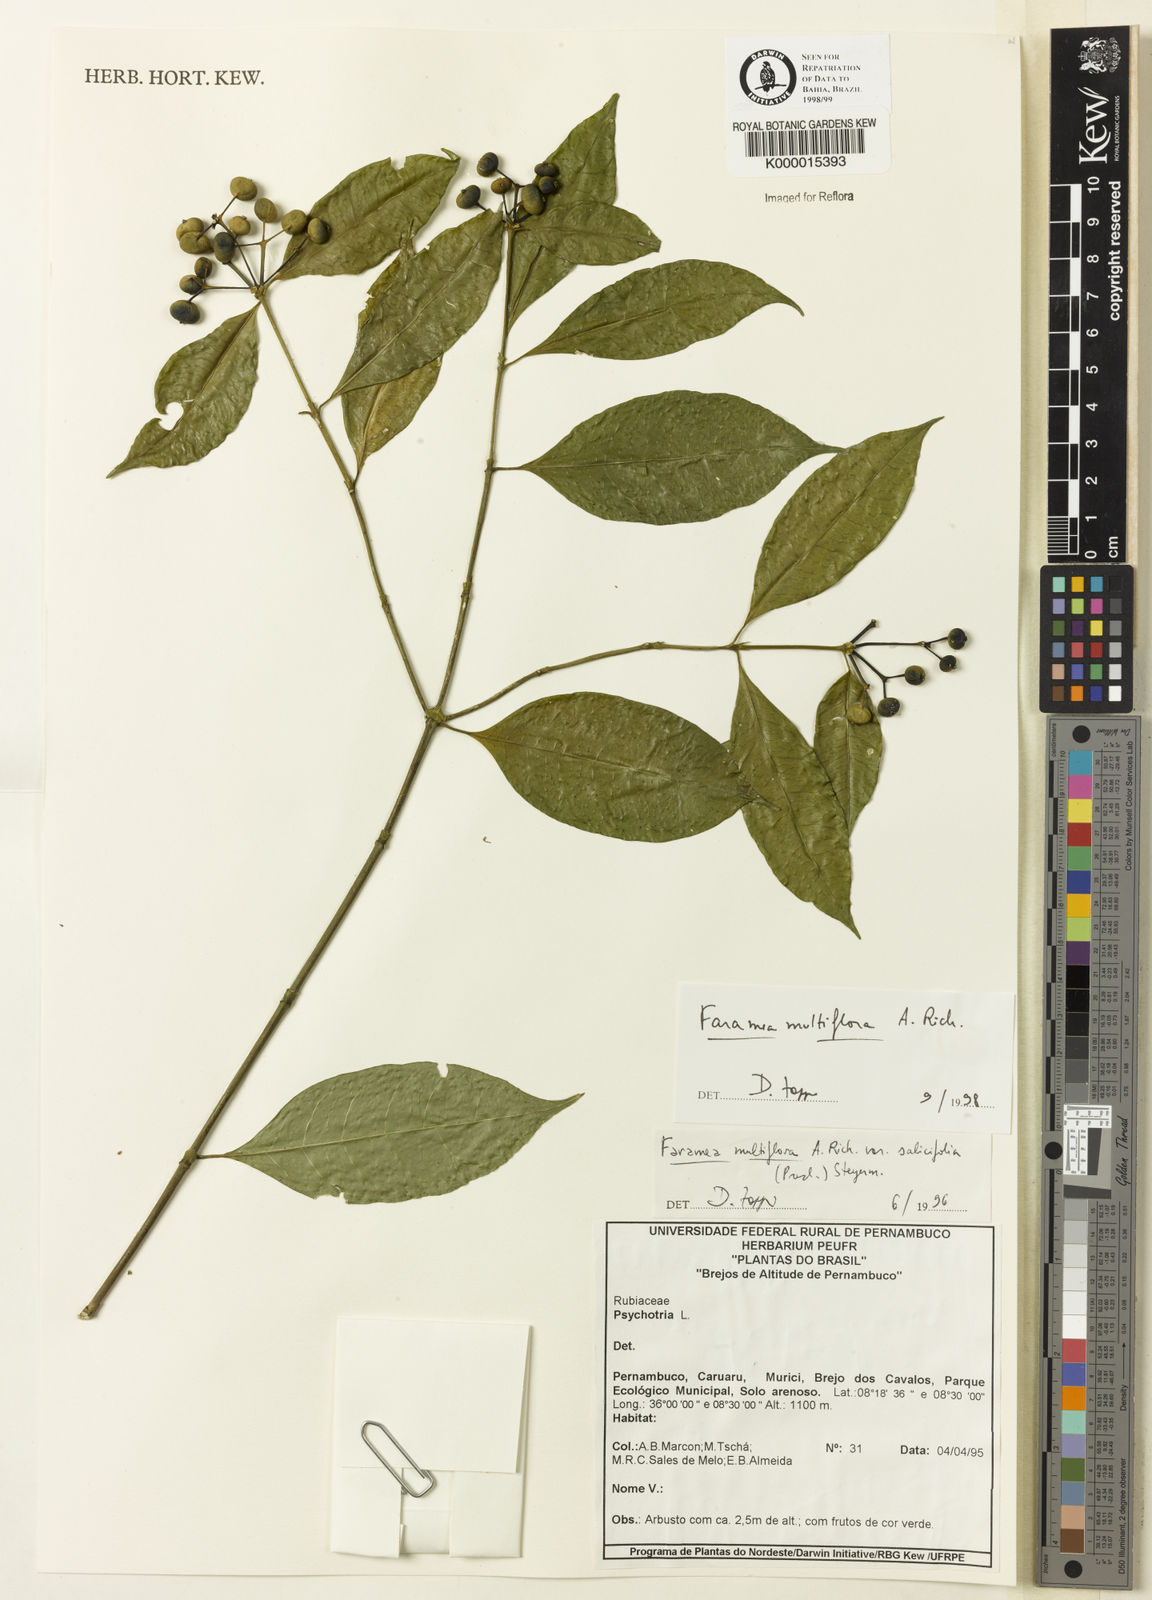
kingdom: Plantae
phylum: Tracheophyta
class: Magnoliopsida
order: Gentianales
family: Rubiaceae
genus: Faramea
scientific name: Faramea multiflora
